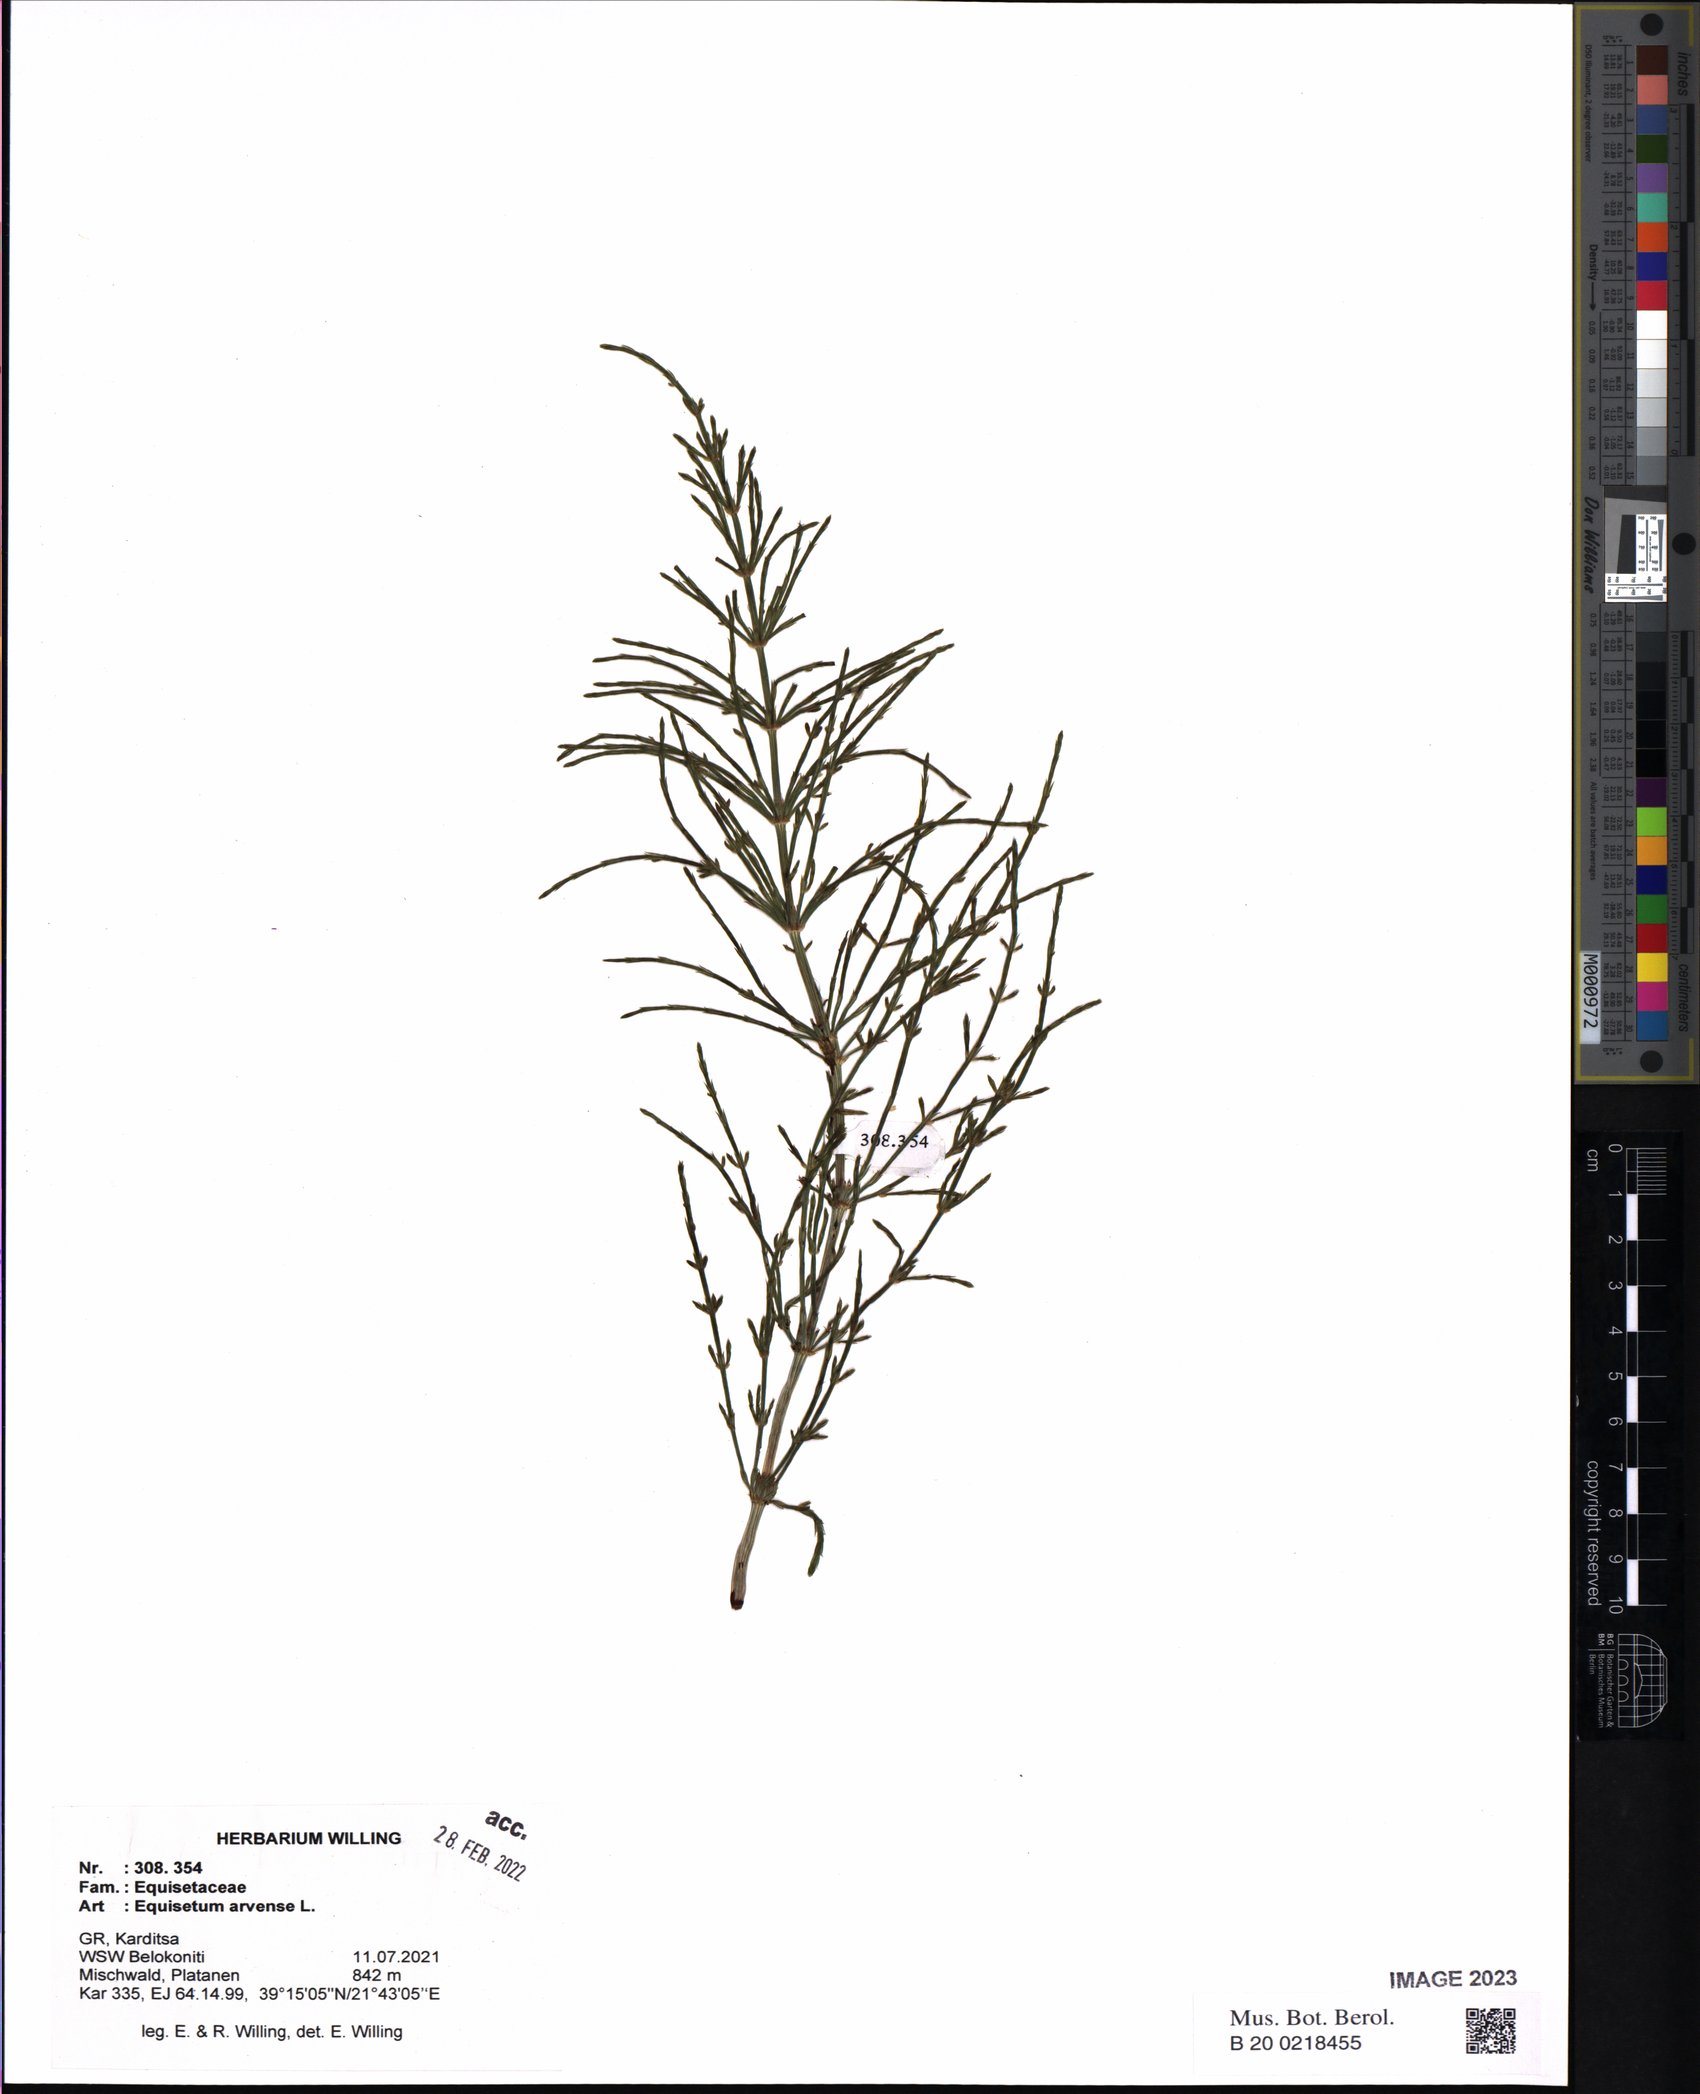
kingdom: Plantae
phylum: Tracheophyta
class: Polypodiopsida
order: Equisetales
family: Equisetaceae
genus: Equisetum
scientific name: Equisetum arvense
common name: Field horsetail
